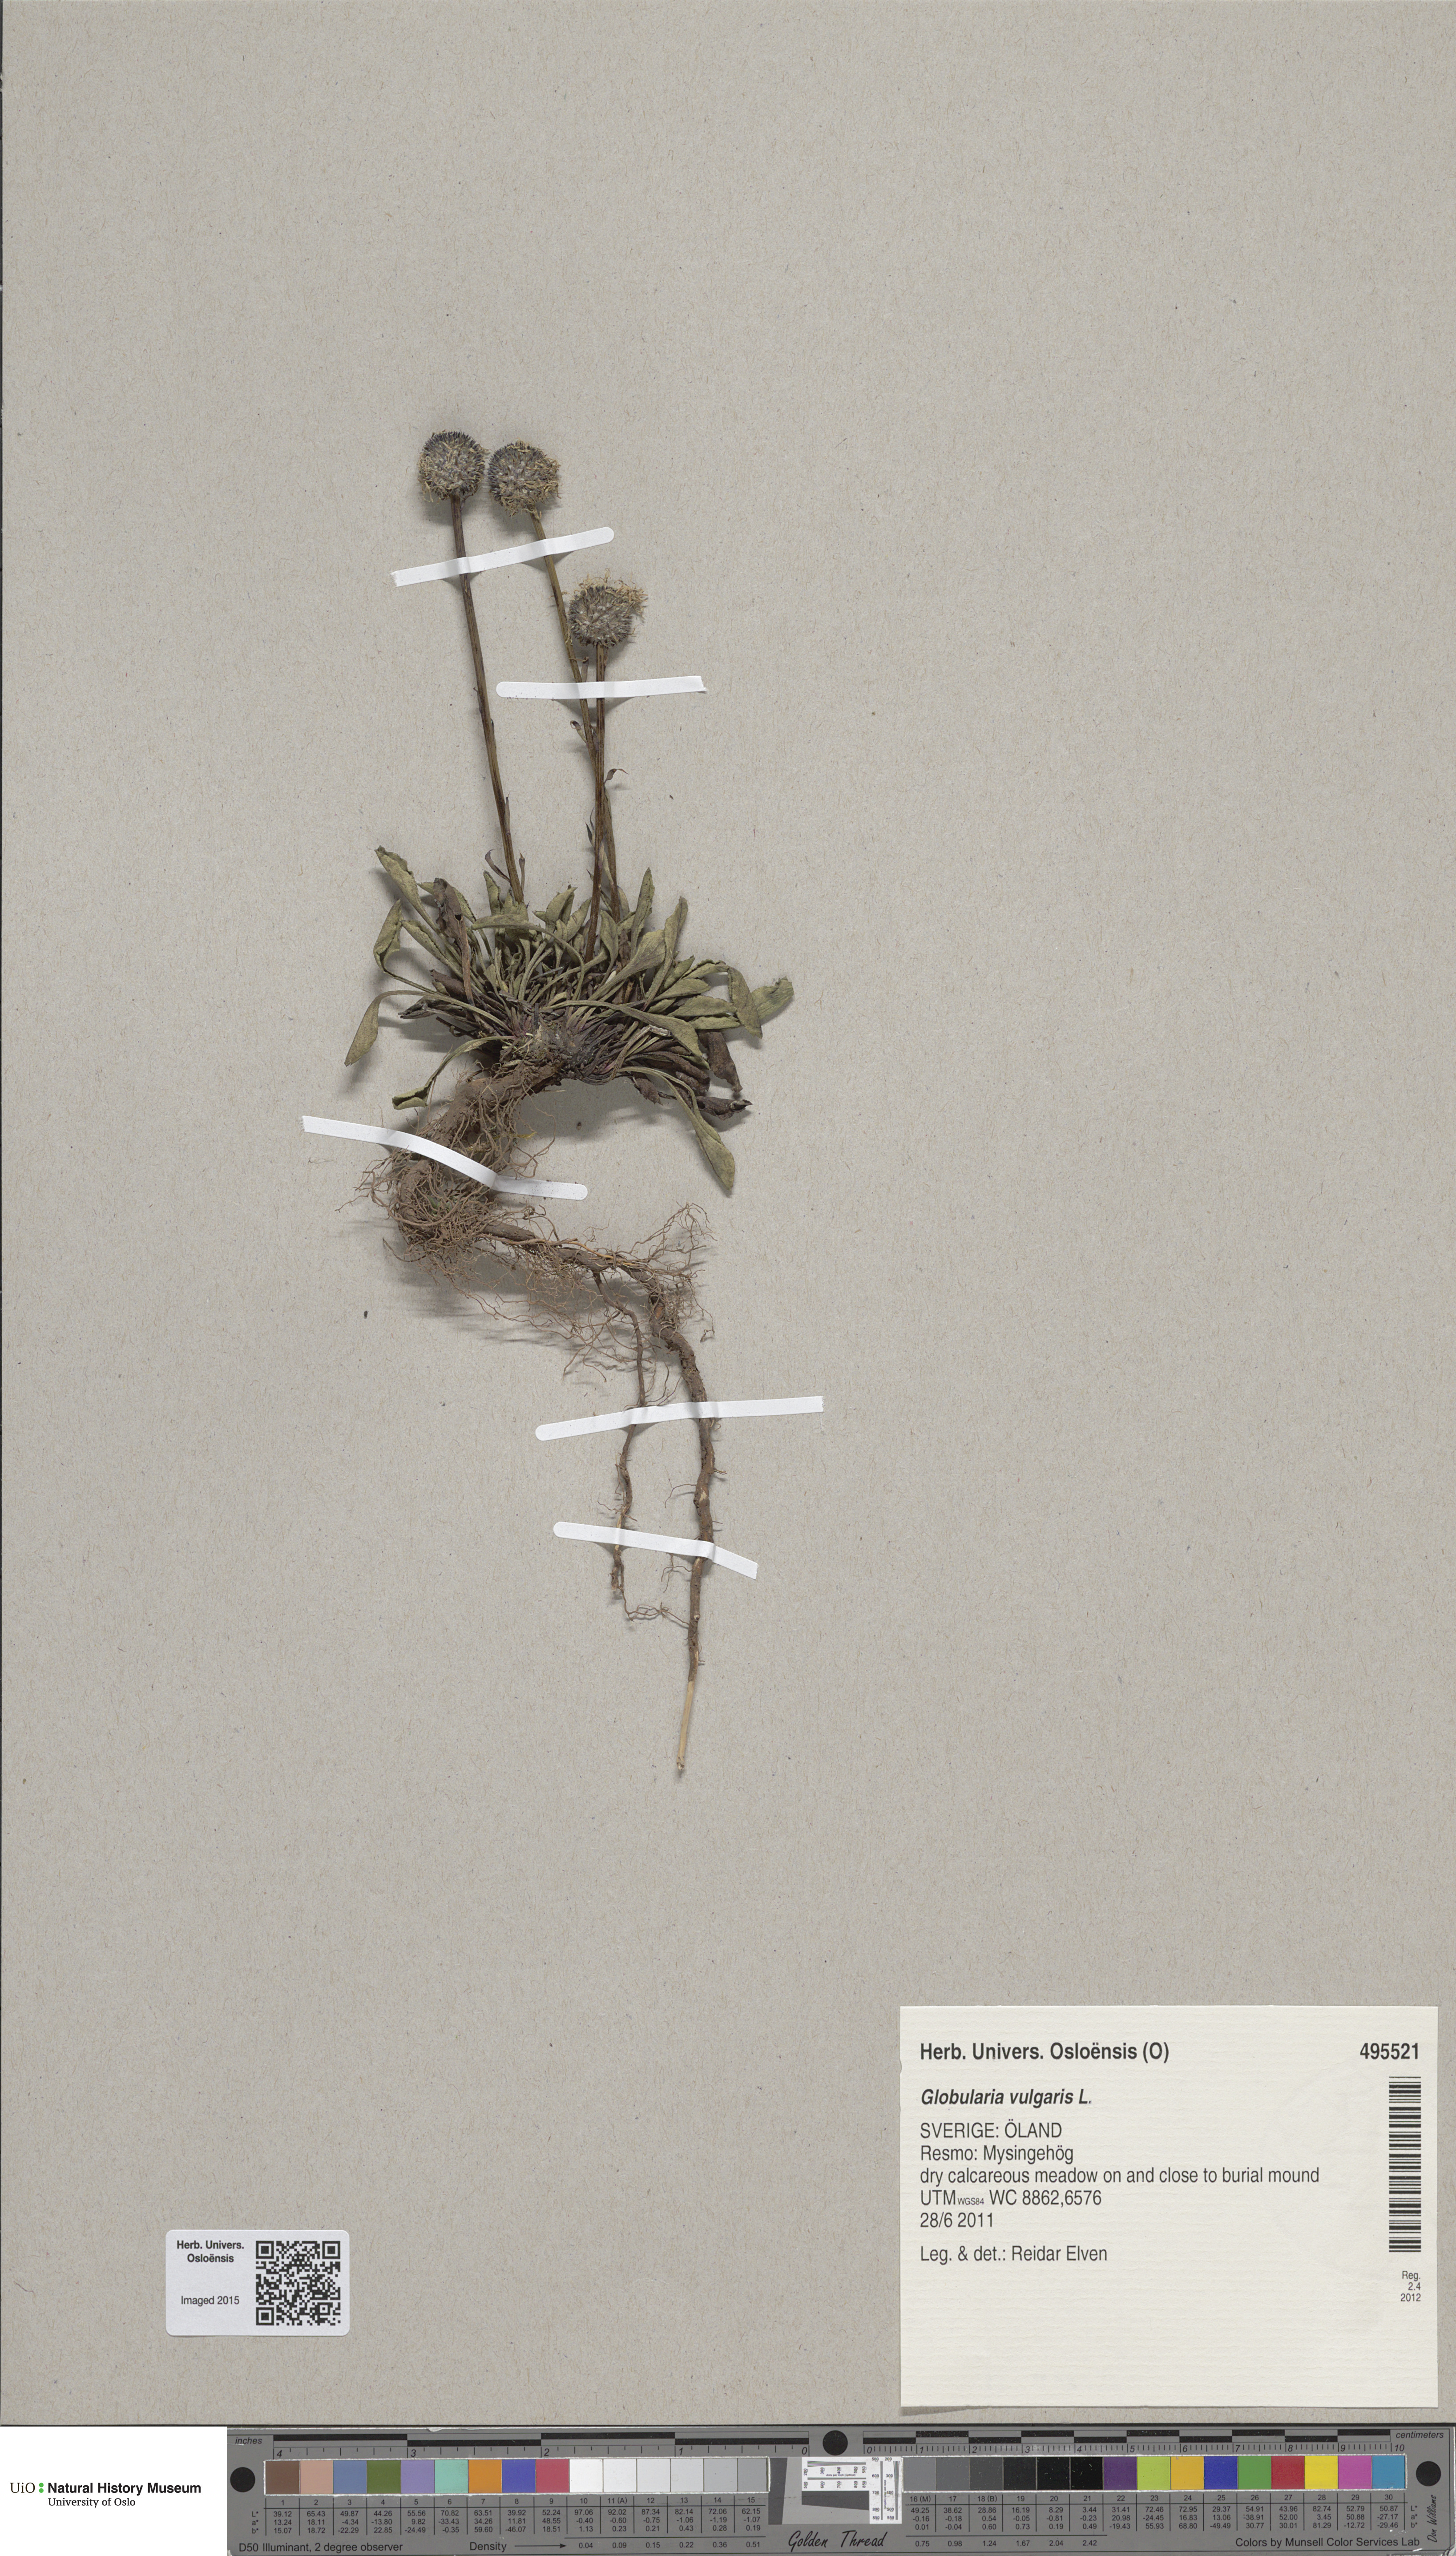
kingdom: Plantae
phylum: Tracheophyta
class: Magnoliopsida
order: Lamiales
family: Plantaginaceae
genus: Globularia
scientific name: Globularia vulgaris
